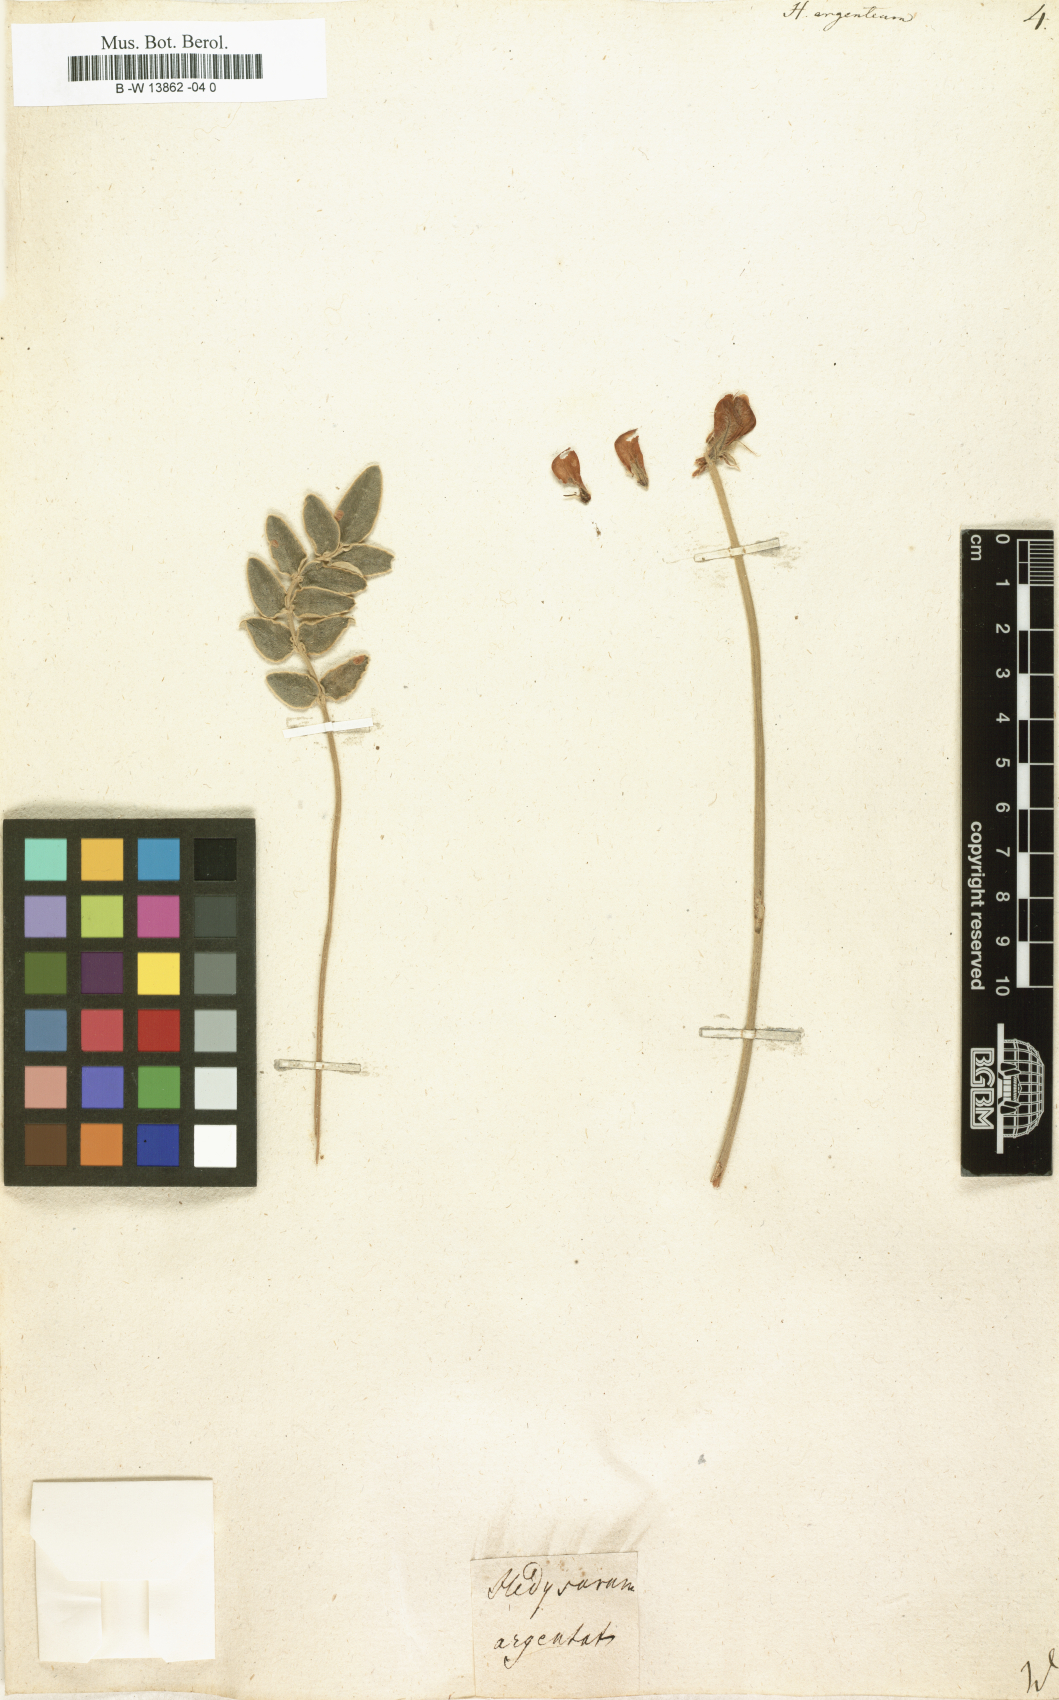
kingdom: Plantae
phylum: Tracheophyta
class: Magnoliopsida
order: Fabales
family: Fabaceae
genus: Hedysarum
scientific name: Hedysarum grandiflorum
